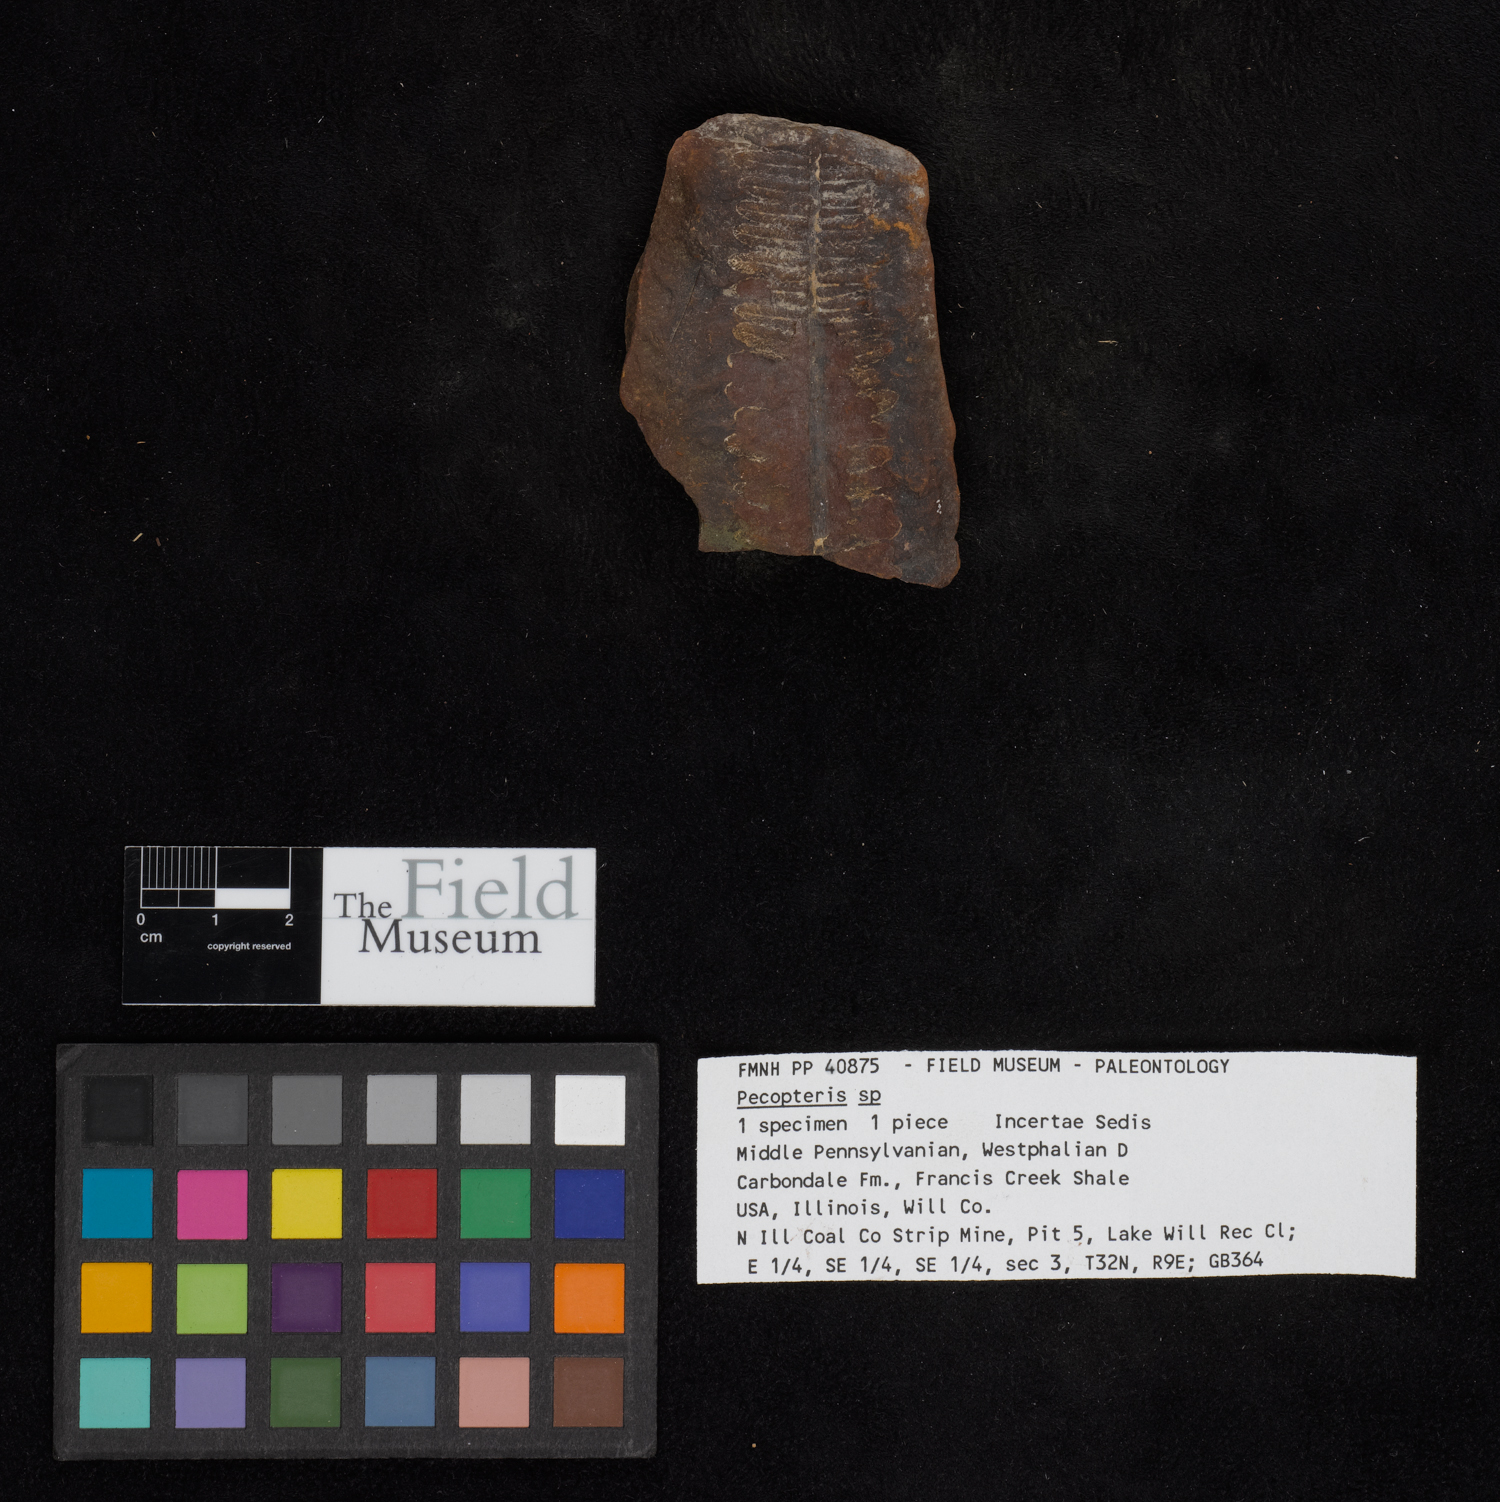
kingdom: Plantae
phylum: Tracheophyta
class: Polypodiopsida
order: Marattiales
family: Asterothecaceae
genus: Pecopteris
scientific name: Pecopteris
